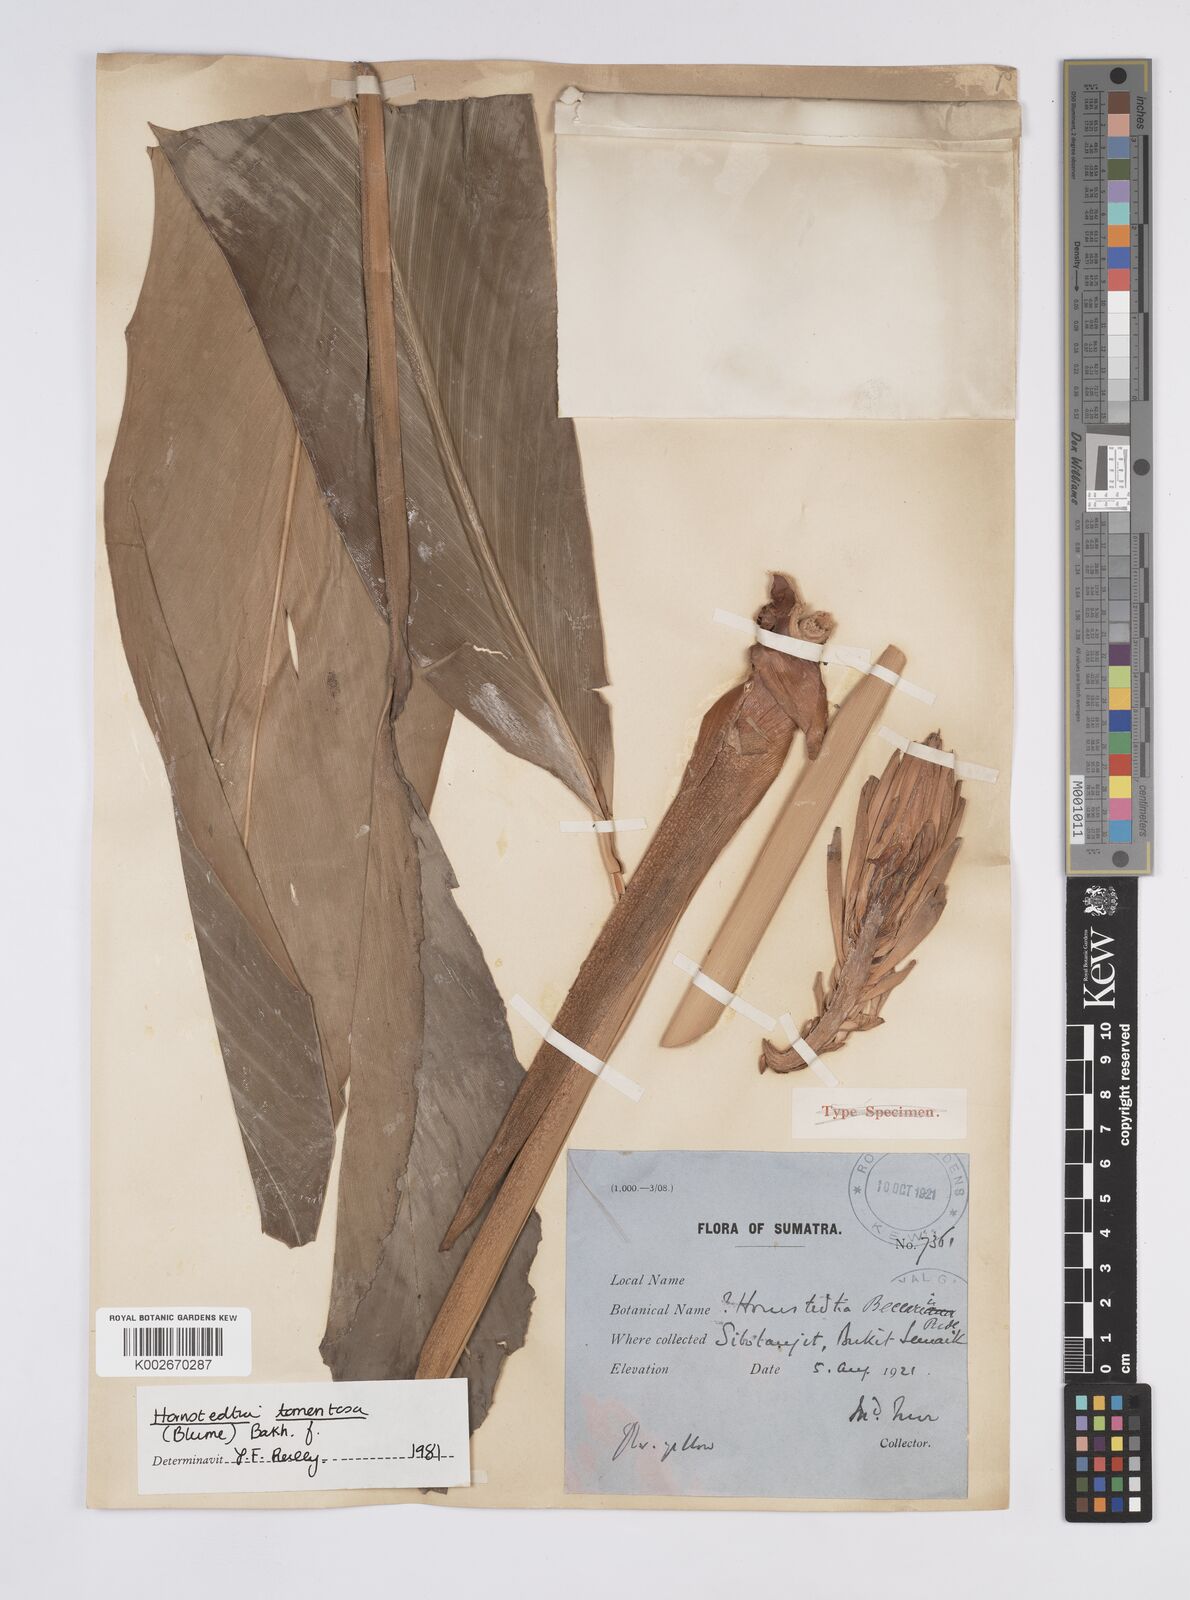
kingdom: Plantae
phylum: Tracheophyta
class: Liliopsida
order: Zingiberales
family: Zingiberaceae
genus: Hornstedtia
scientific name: Hornstedtia tomentosa
